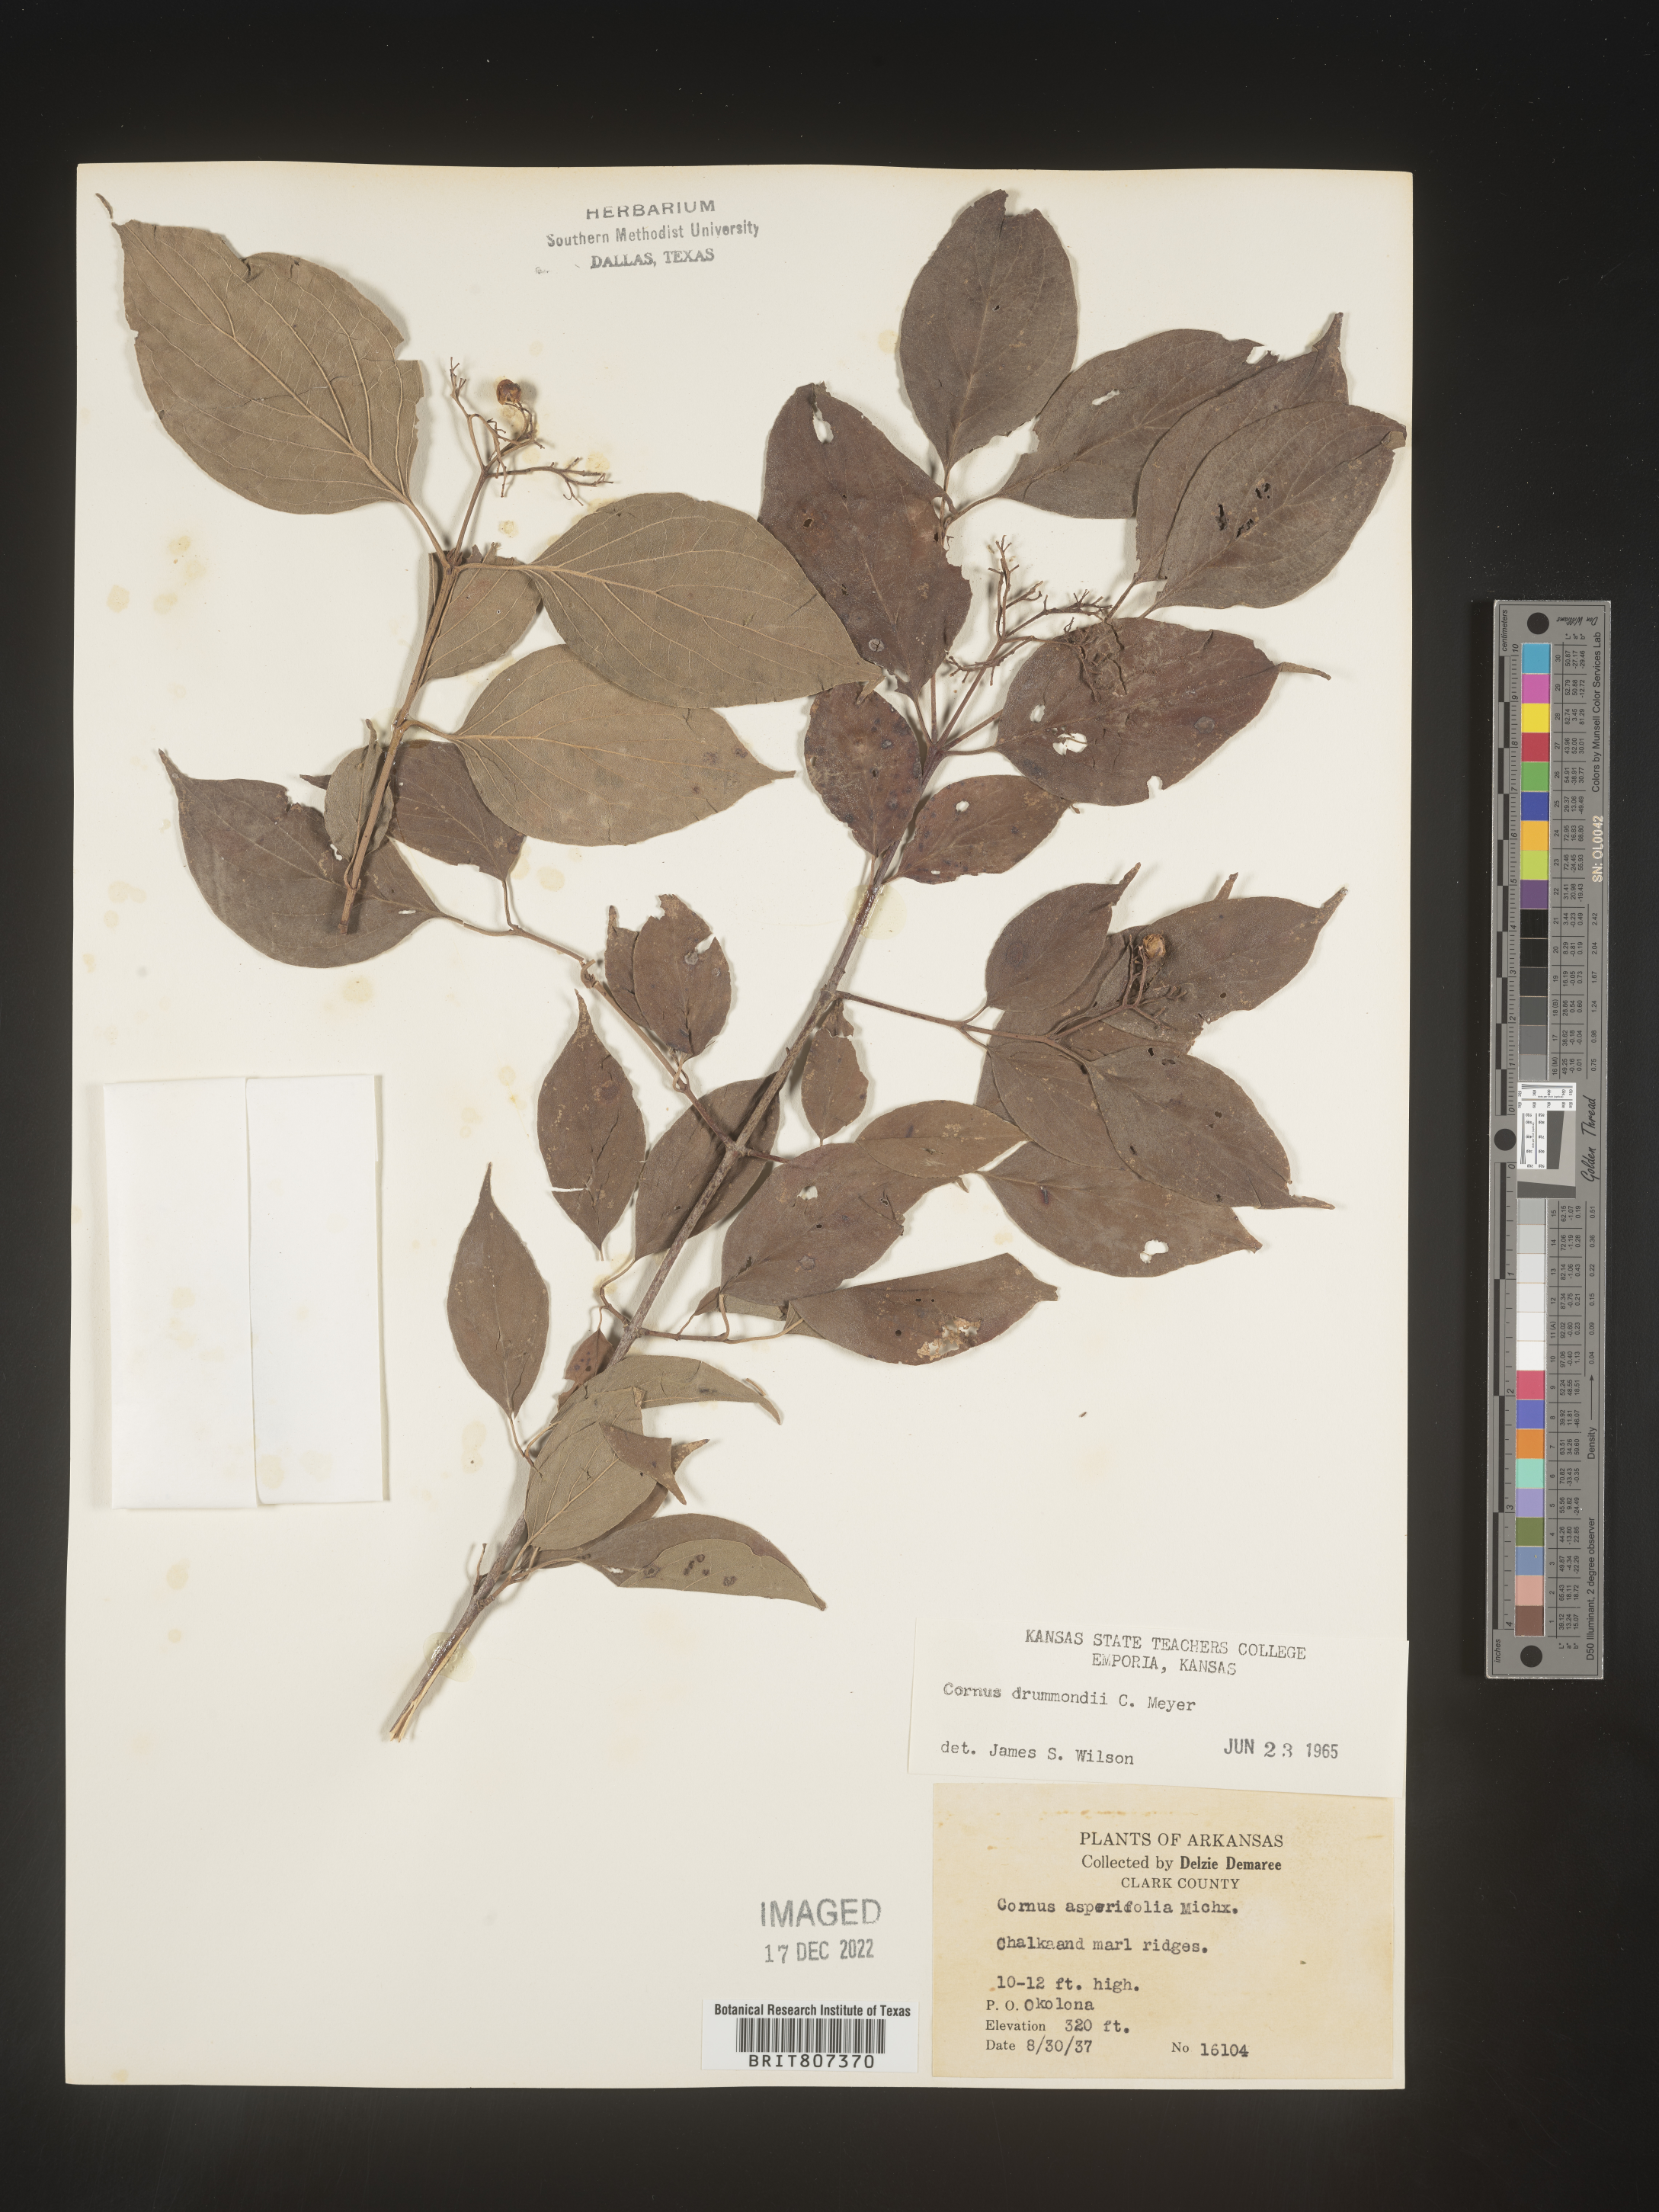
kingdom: Plantae
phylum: Tracheophyta
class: Magnoliopsida
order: Cornales
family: Cornaceae
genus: Cornus
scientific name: Cornus drummondii
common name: Rough-leaf dogwood
